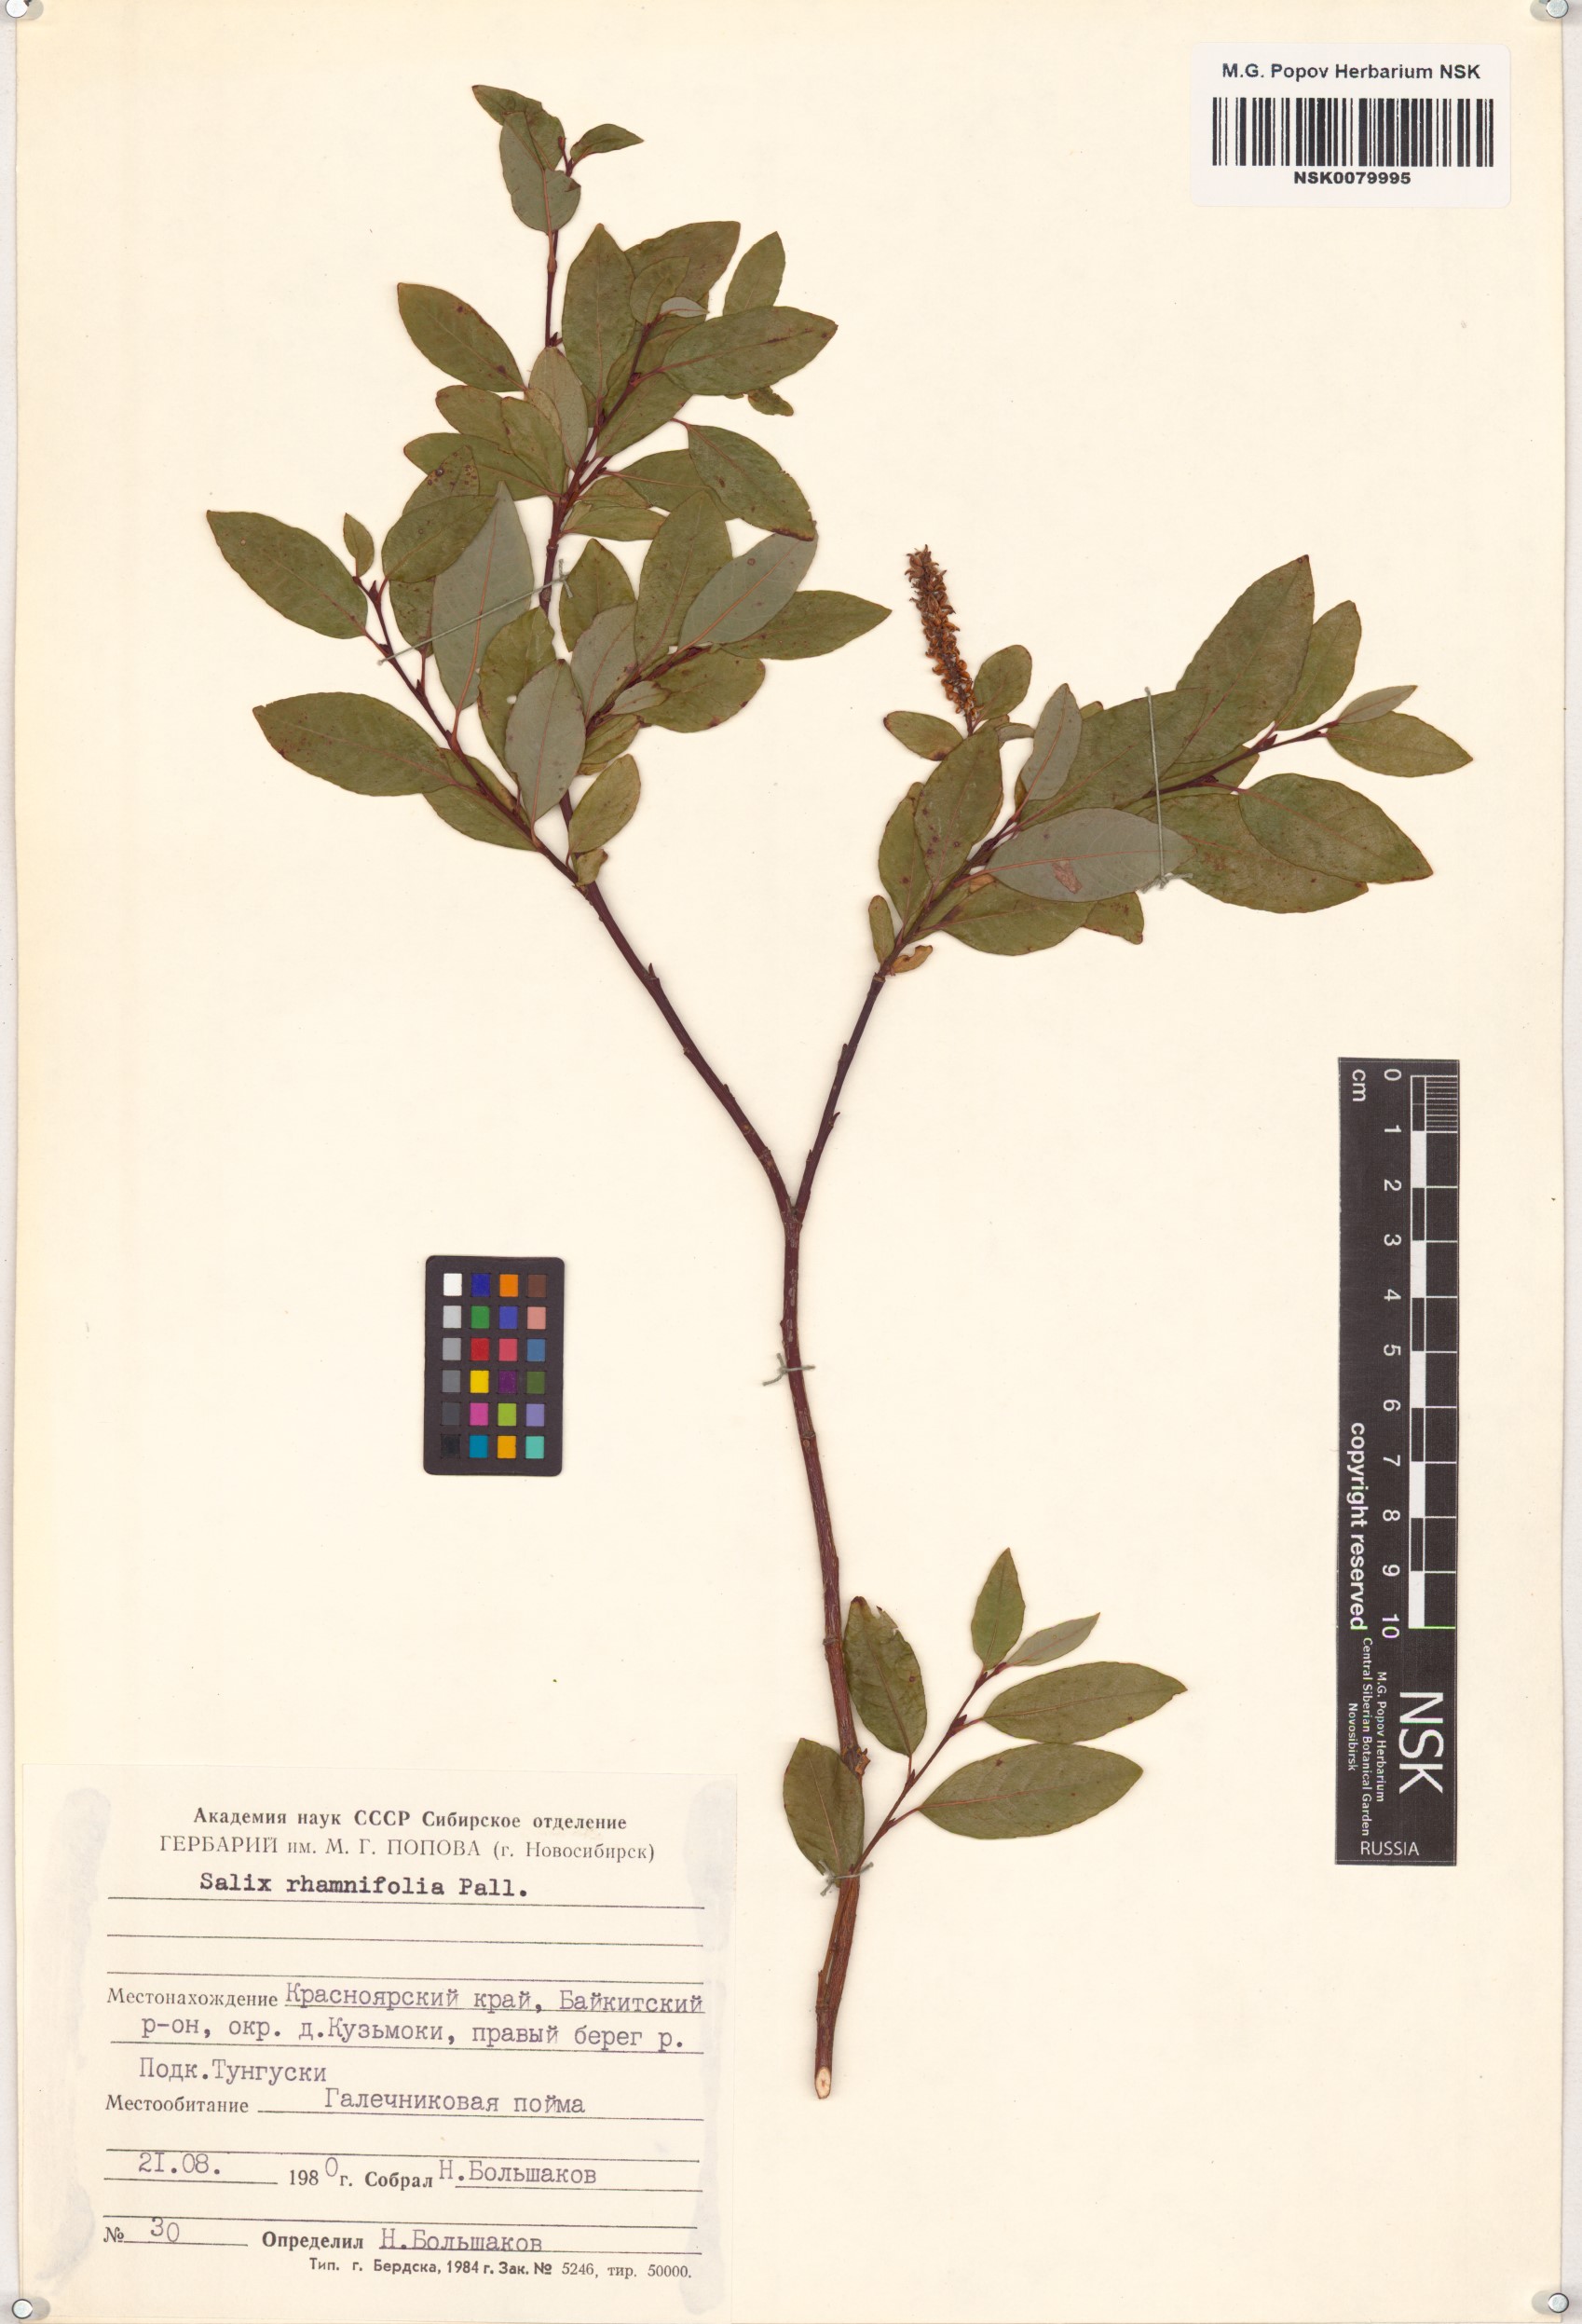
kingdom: Plantae
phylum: Tracheophyta
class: Magnoliopsida
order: Malpighiales
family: Salicaceae
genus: Salix
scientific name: Salix rhamnifolia
